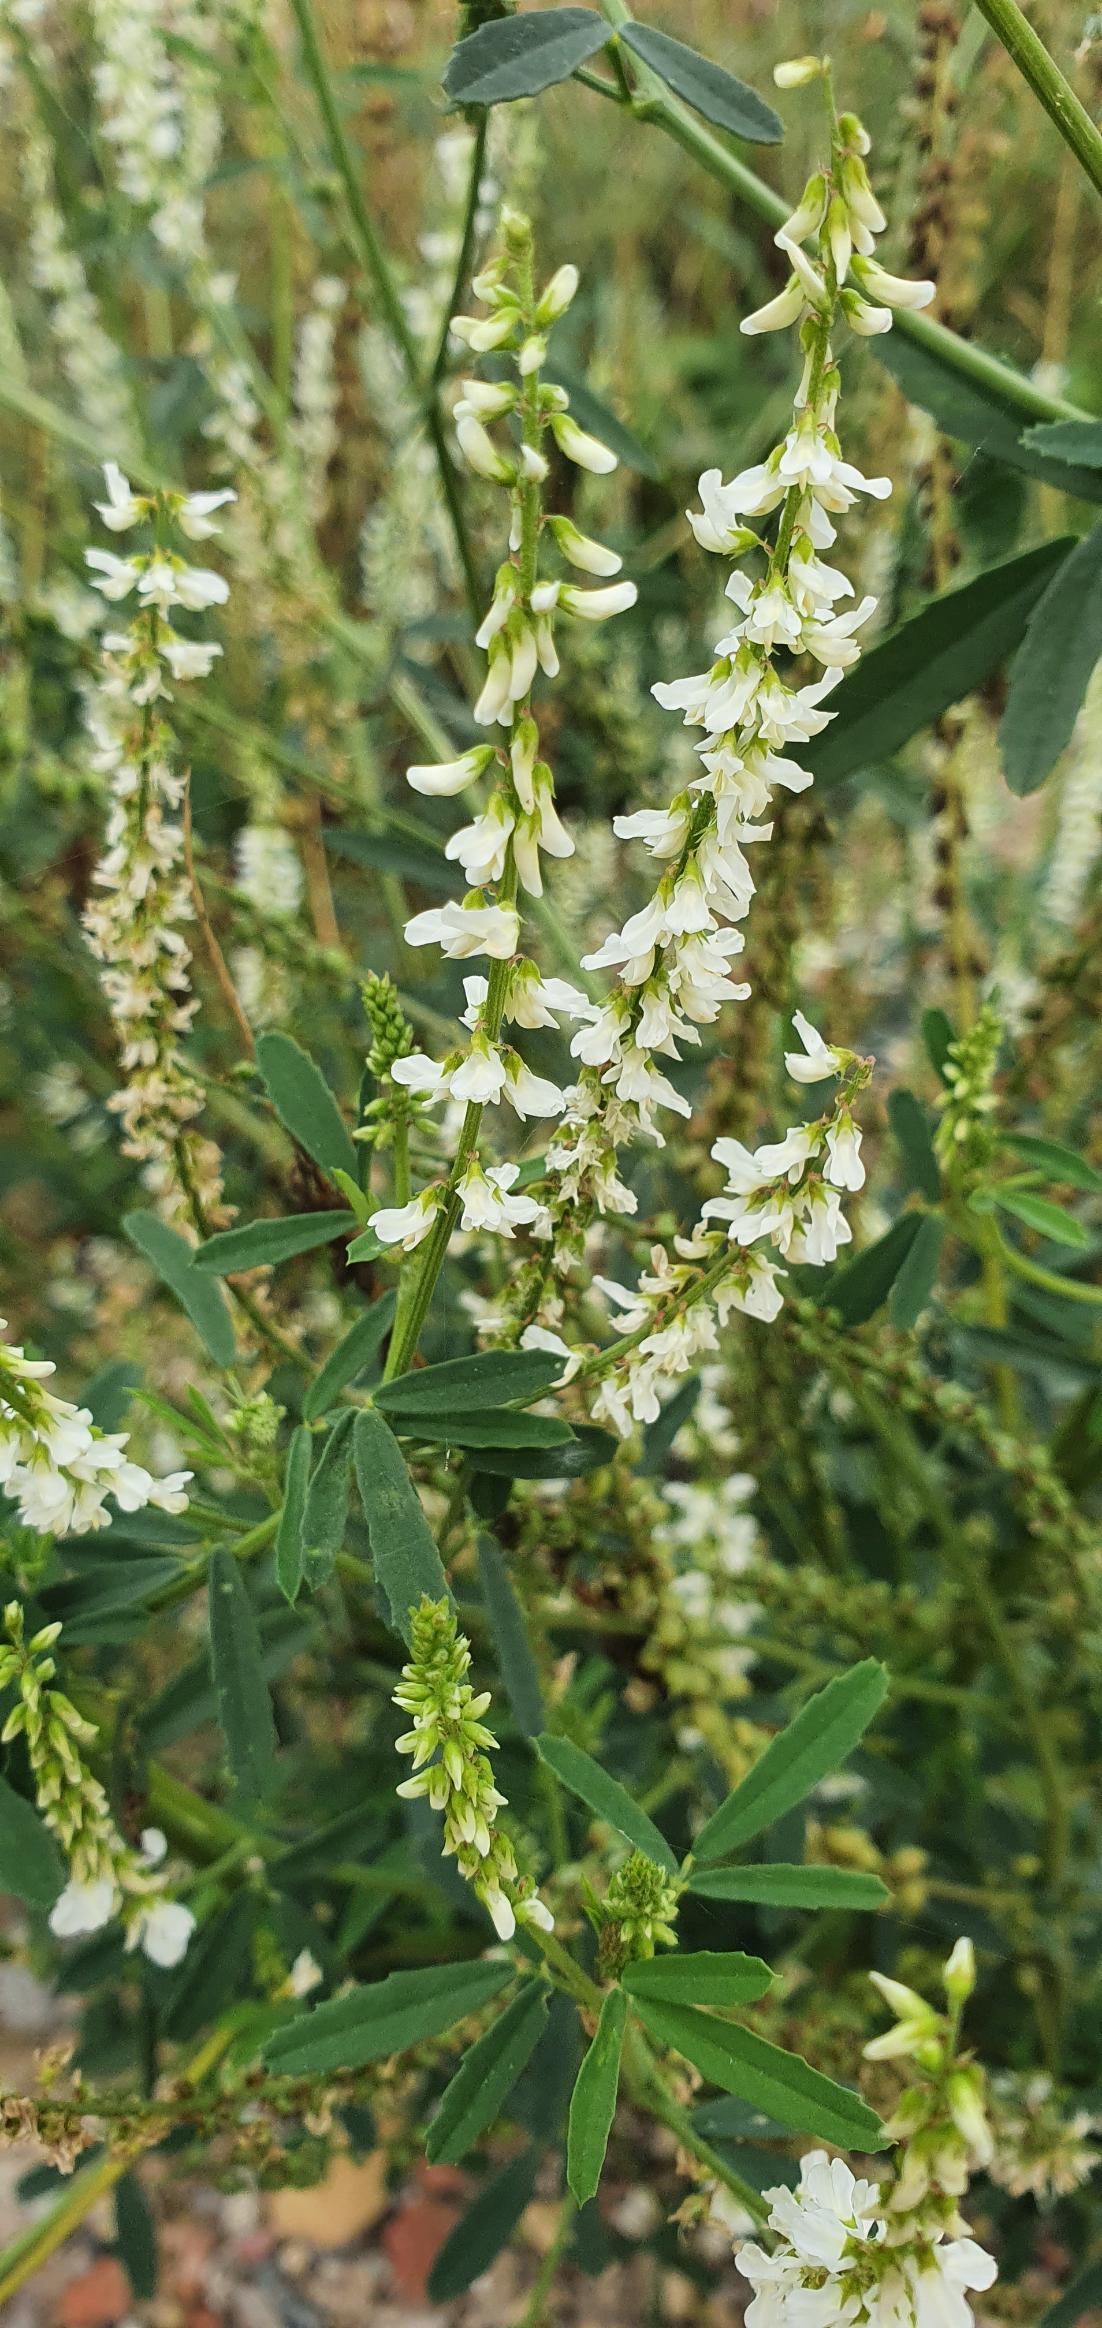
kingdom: Plantae
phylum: Tracheophyta
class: Magnoliopsida
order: Fabales
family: Fabaceae
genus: Melilotus
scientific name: Melilotus albus
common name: Hvid stenkløver
